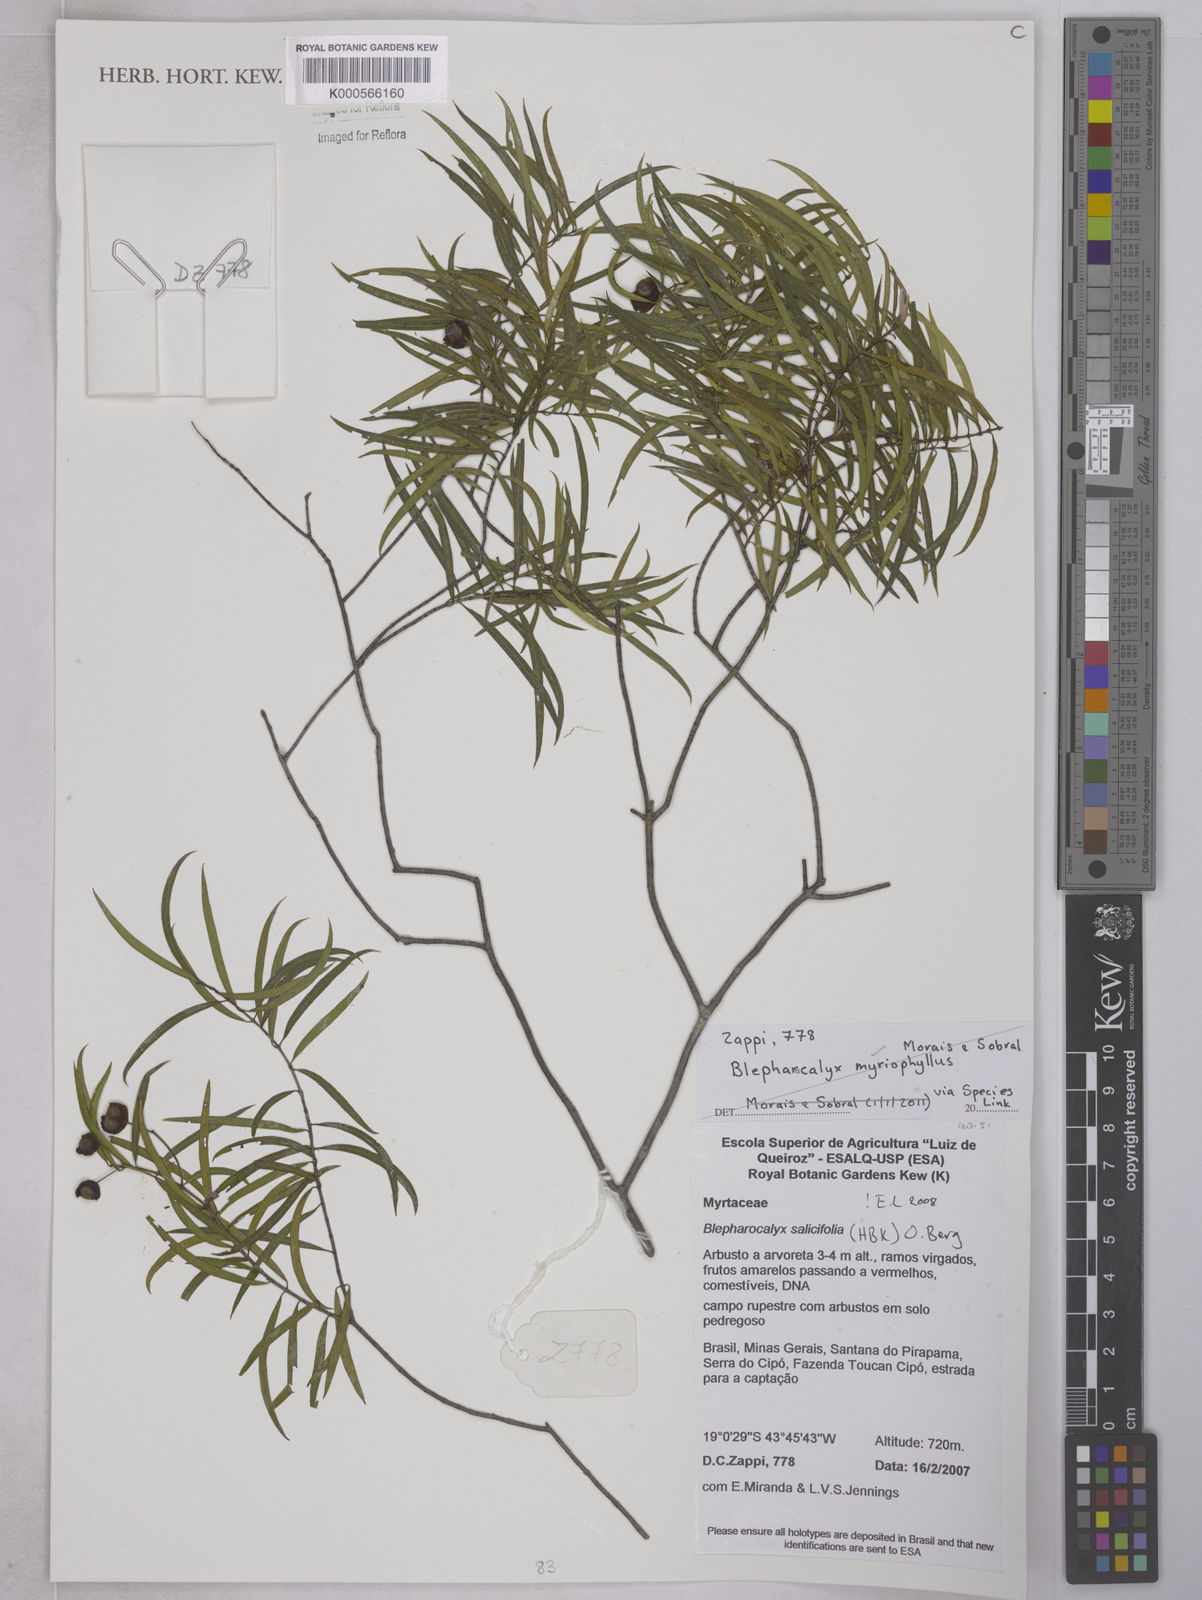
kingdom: Plantae
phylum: Tracheophyta
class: Magnoliopsida
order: Myrtales
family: Myrtaceae
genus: Blepharocalyx
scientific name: Blepharocalyx salicifolius
